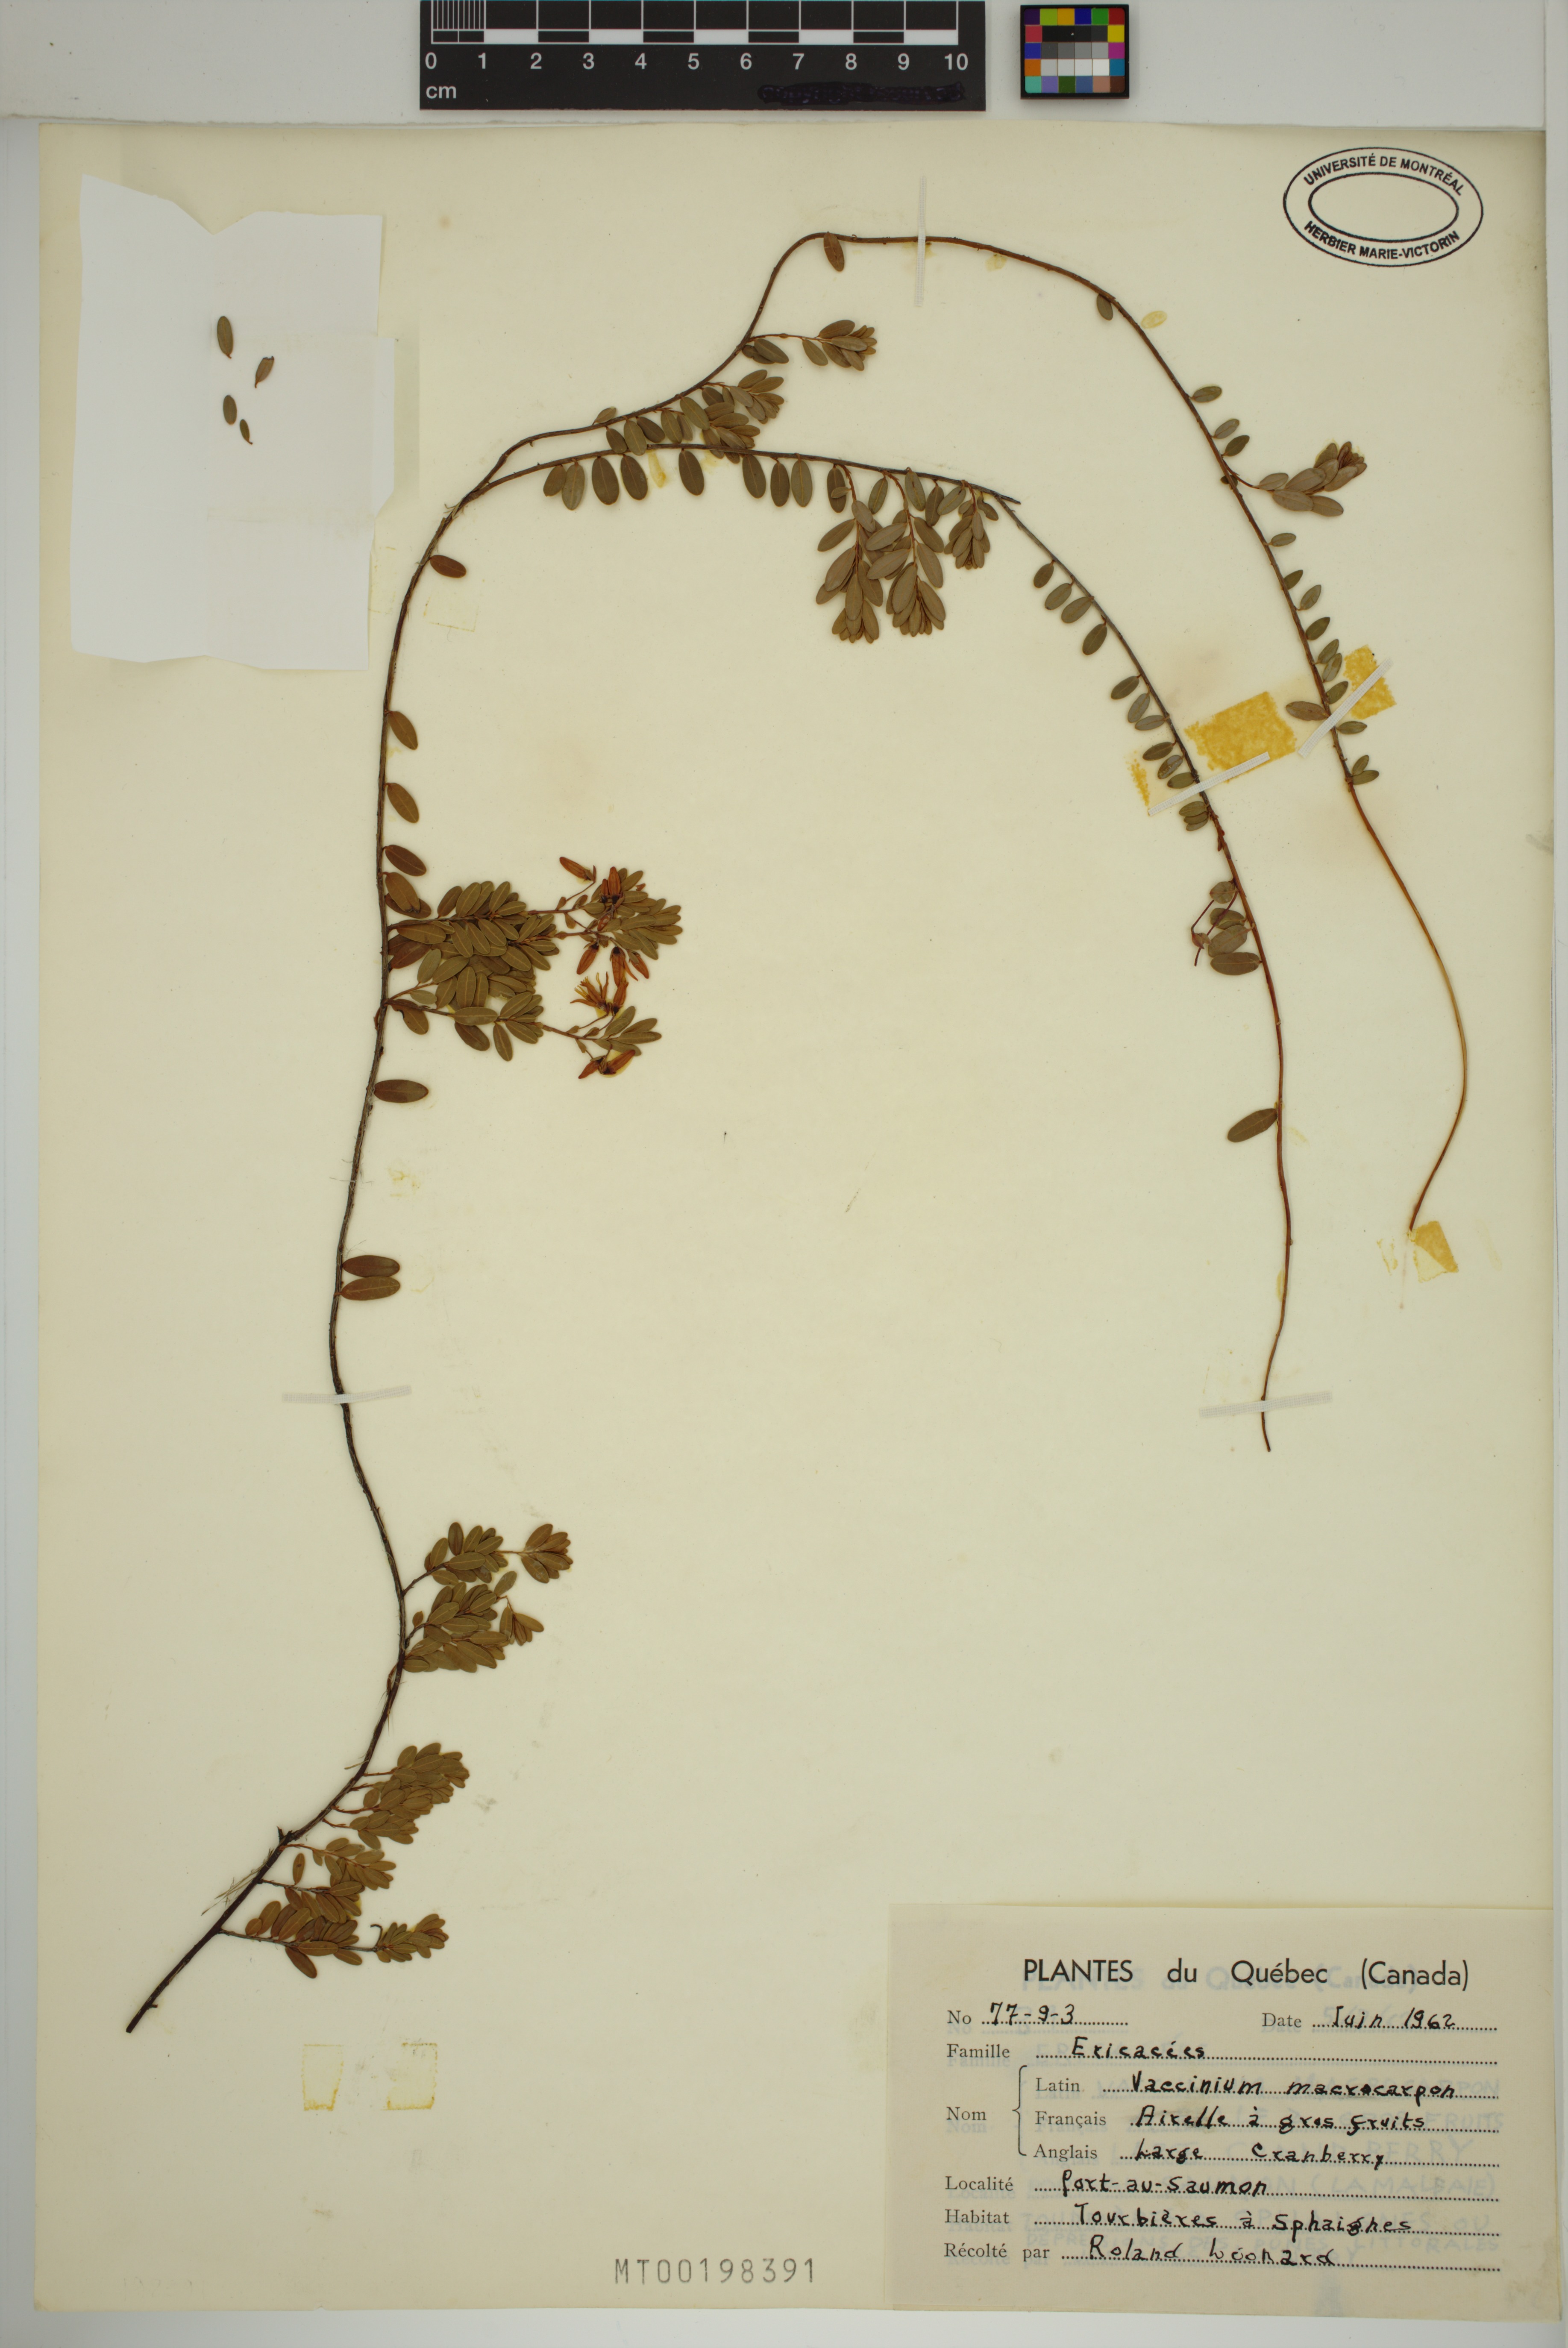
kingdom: Plantae
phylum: Tracheophyta
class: Magnoliopsida
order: Ericales
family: Ericaceae
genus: Vaccinium
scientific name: Vaccinium macrocarpon
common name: American cranberry
